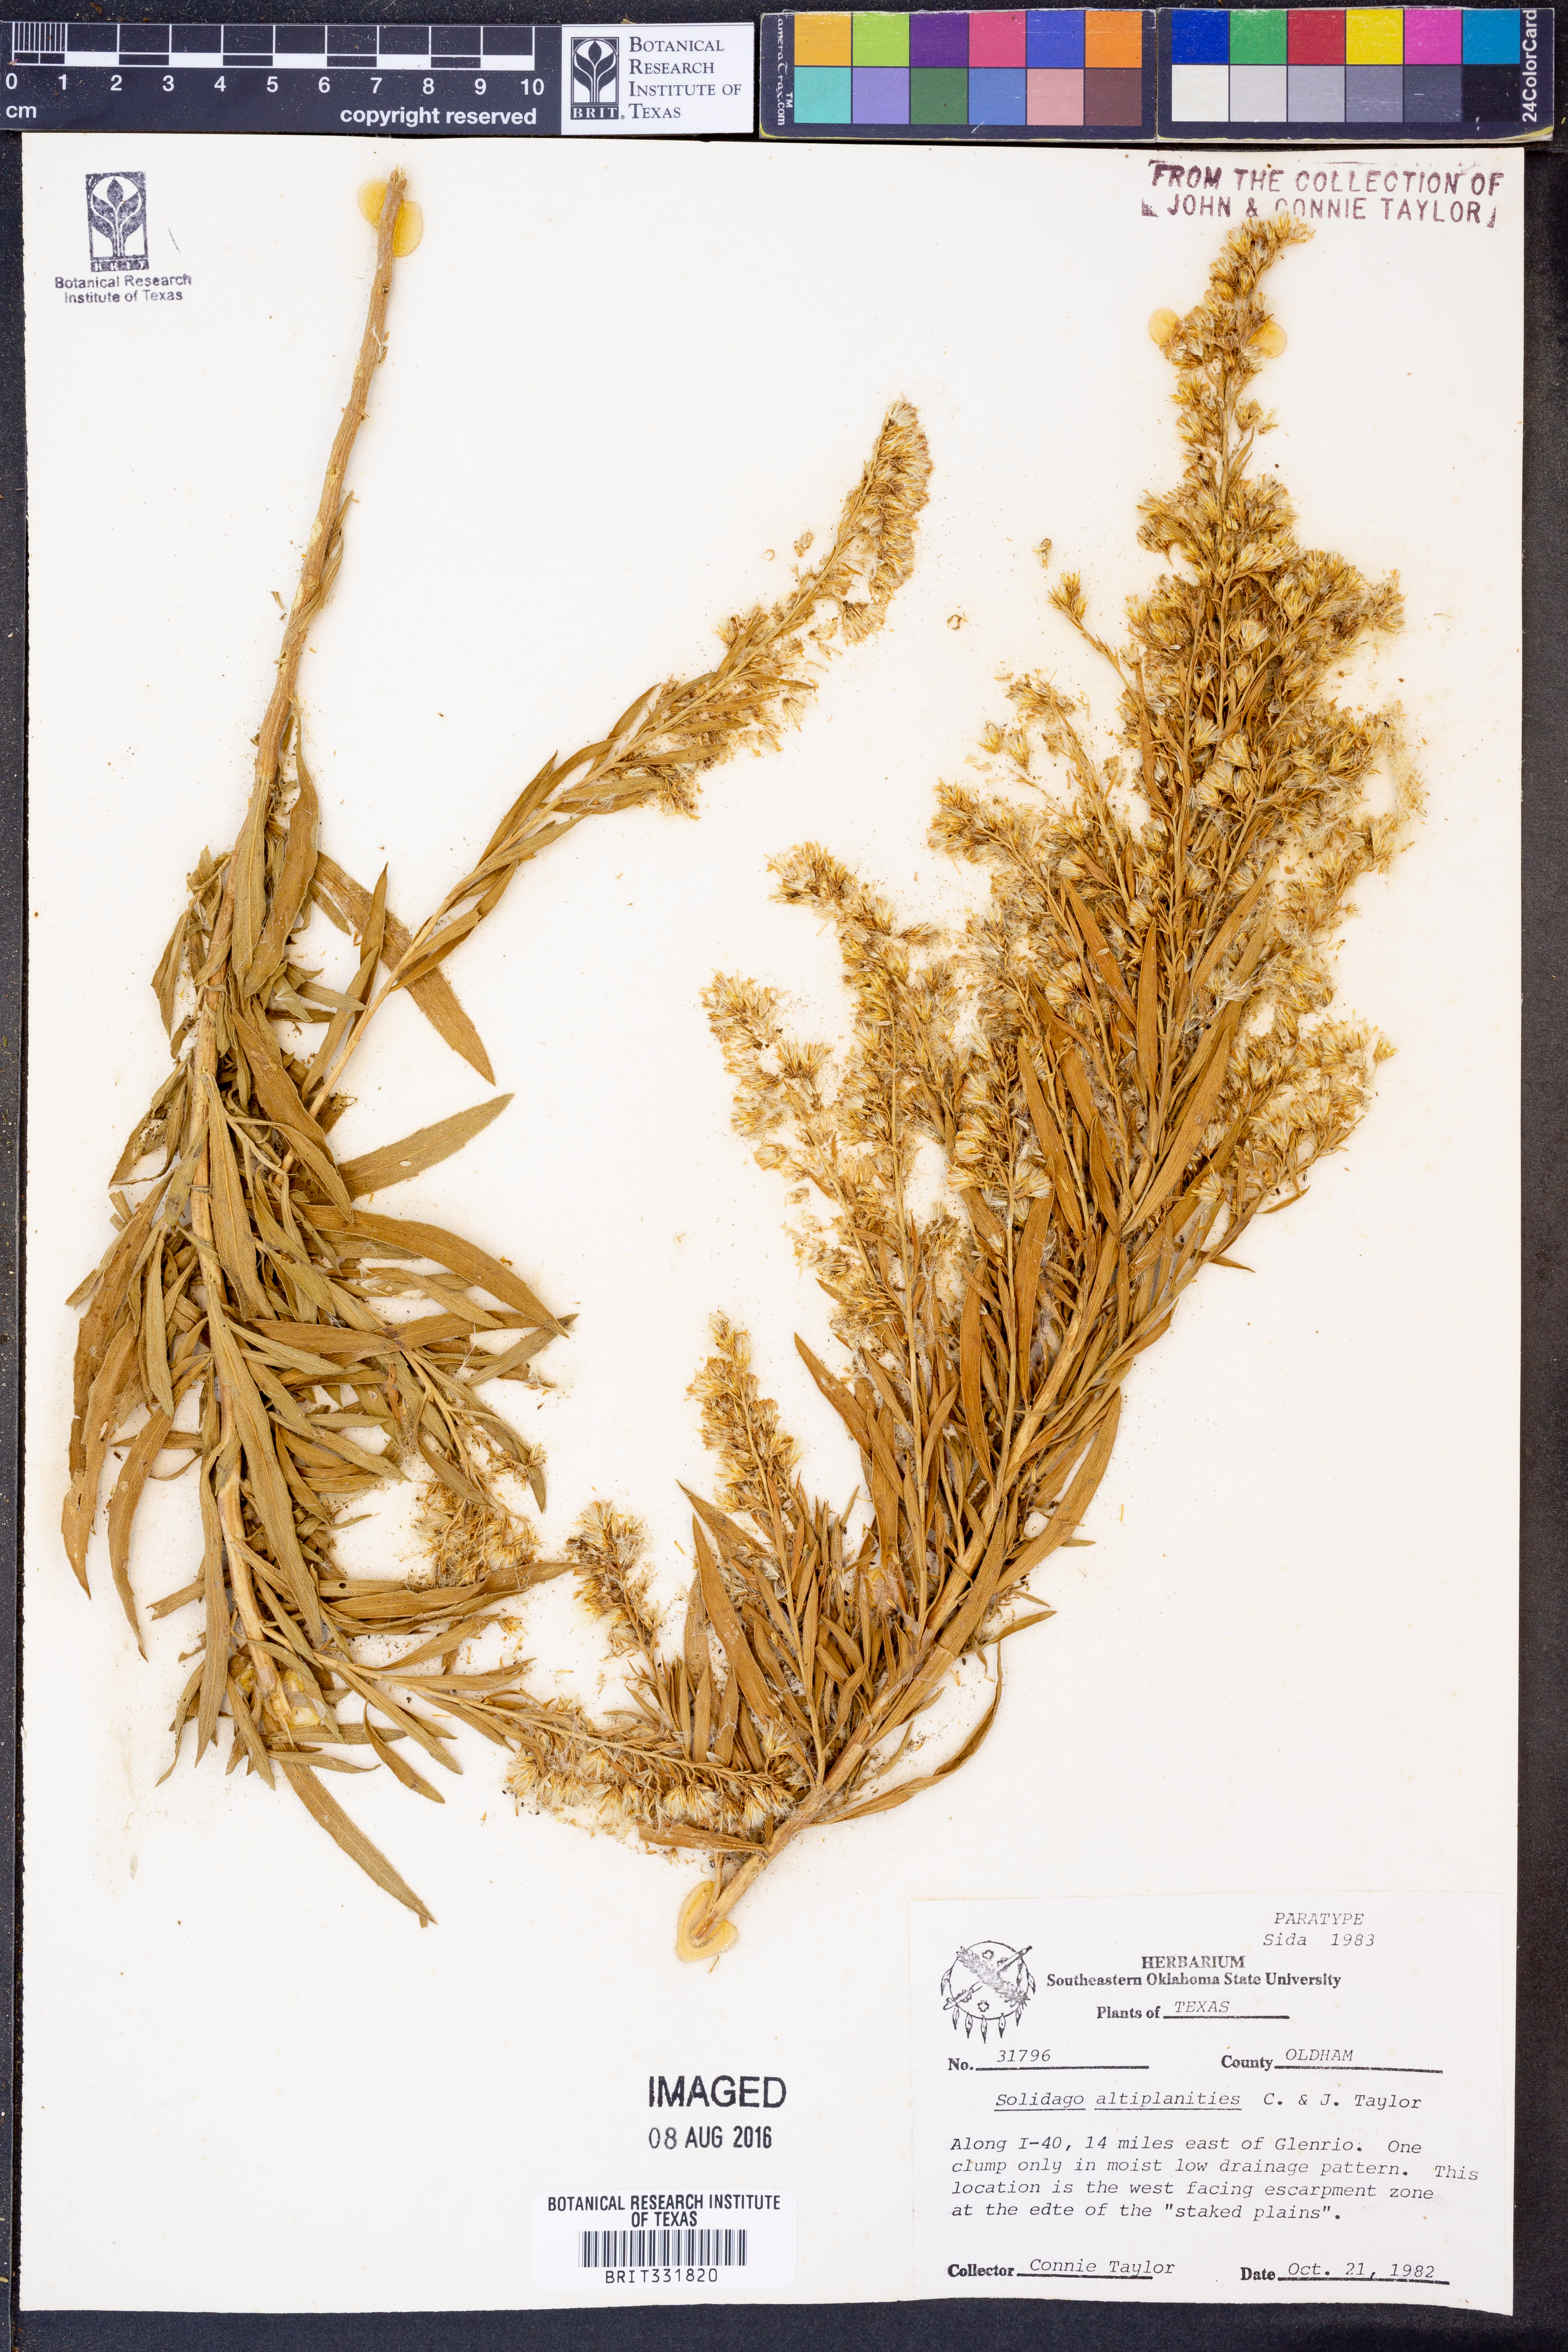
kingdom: Plantae
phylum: Tracheophyta
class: Magnoliopsida
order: Asterales
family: Asteraceae
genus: Solidago
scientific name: Solidago altiplanities
